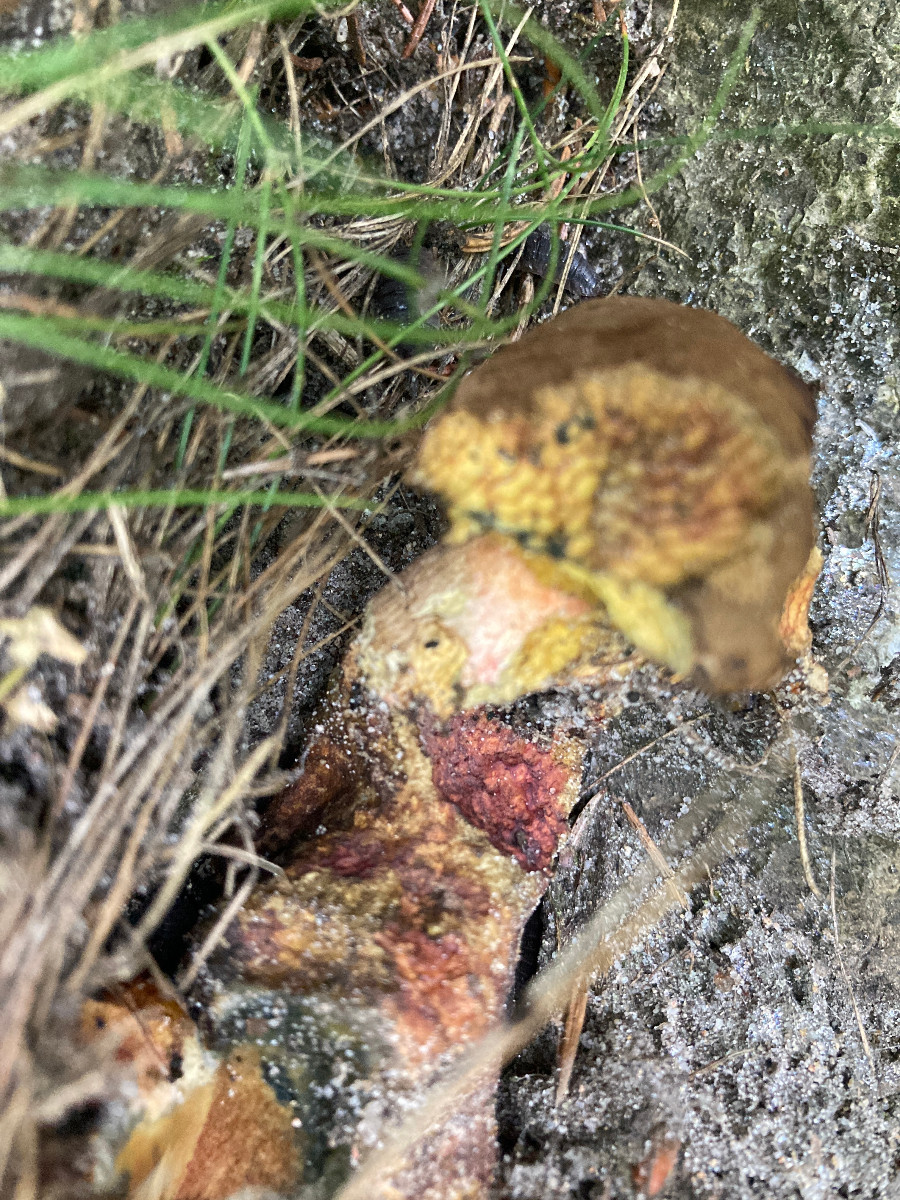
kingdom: Fungi
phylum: Basidiomycota
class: Agaricomycetes
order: Boletales
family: Boletaceae
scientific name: Boletaceae
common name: rørhatfamilien
